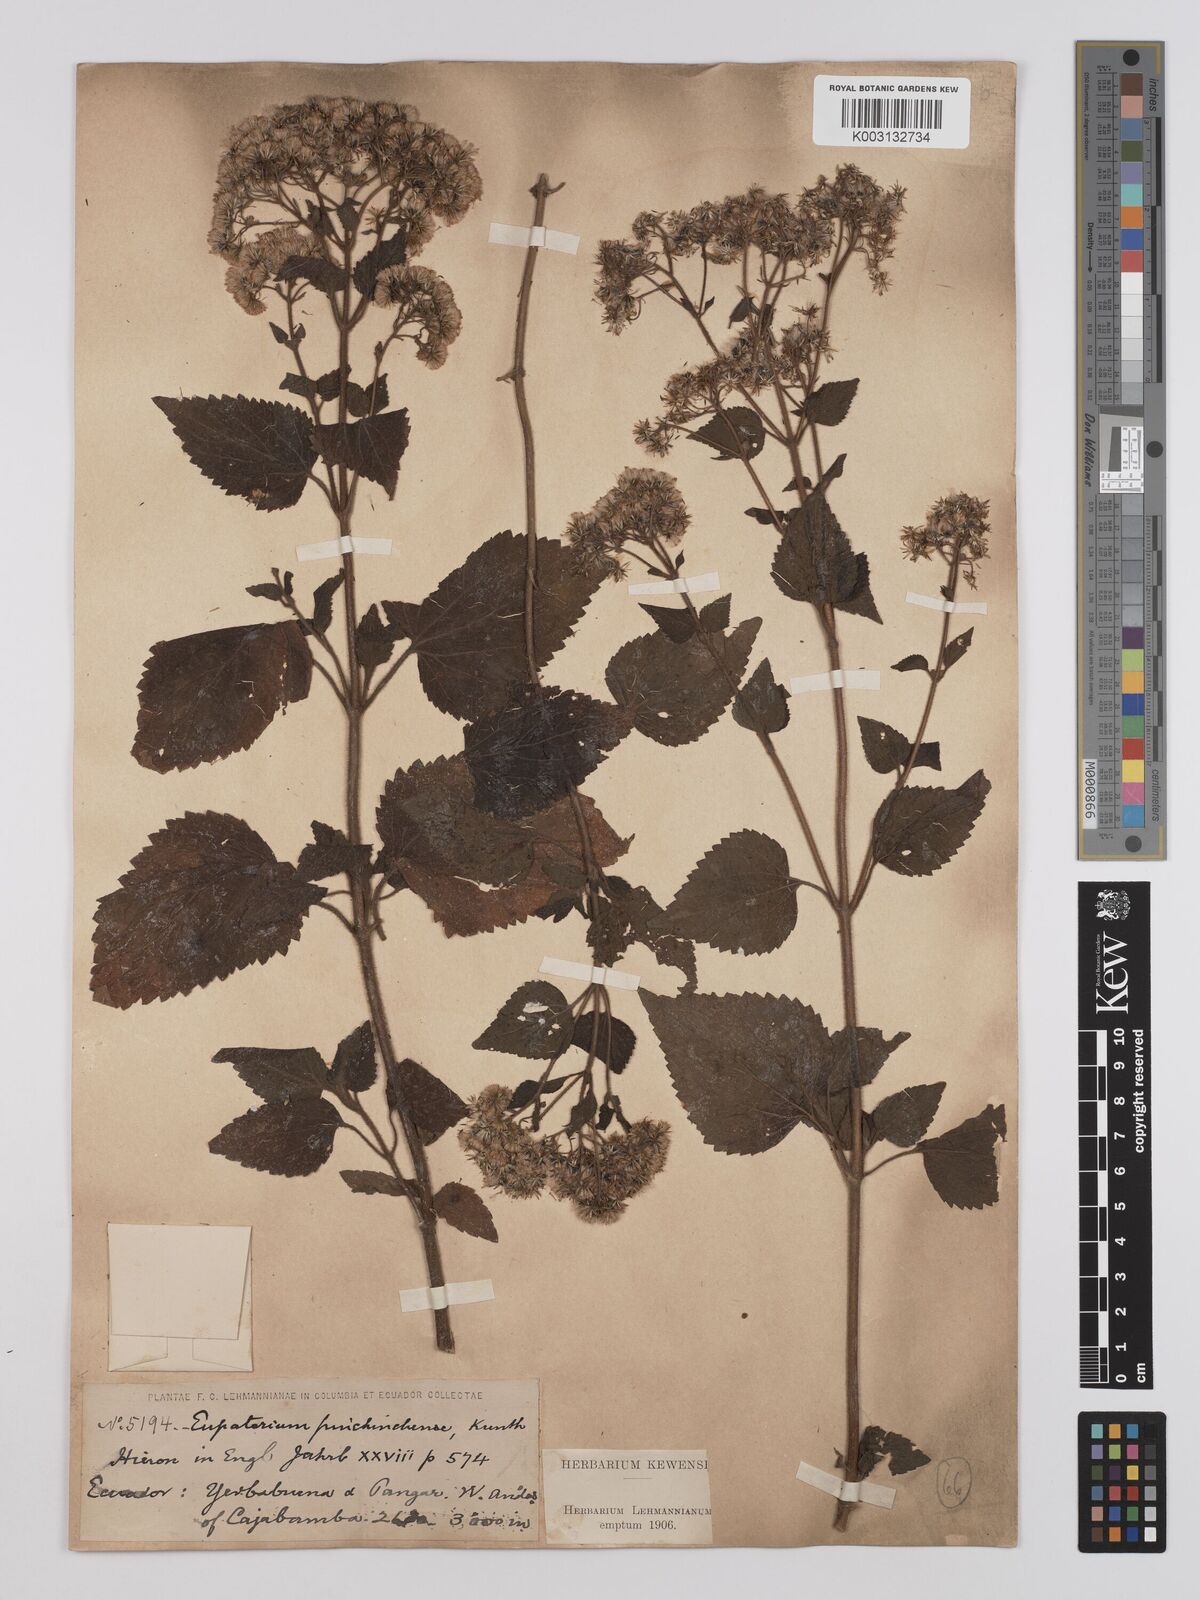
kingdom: Plantae
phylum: Tracheophyta
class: Magnoliopsida
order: Asterales
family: Asteraceae
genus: Ageratina
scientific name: Ageratina ibaguensis
